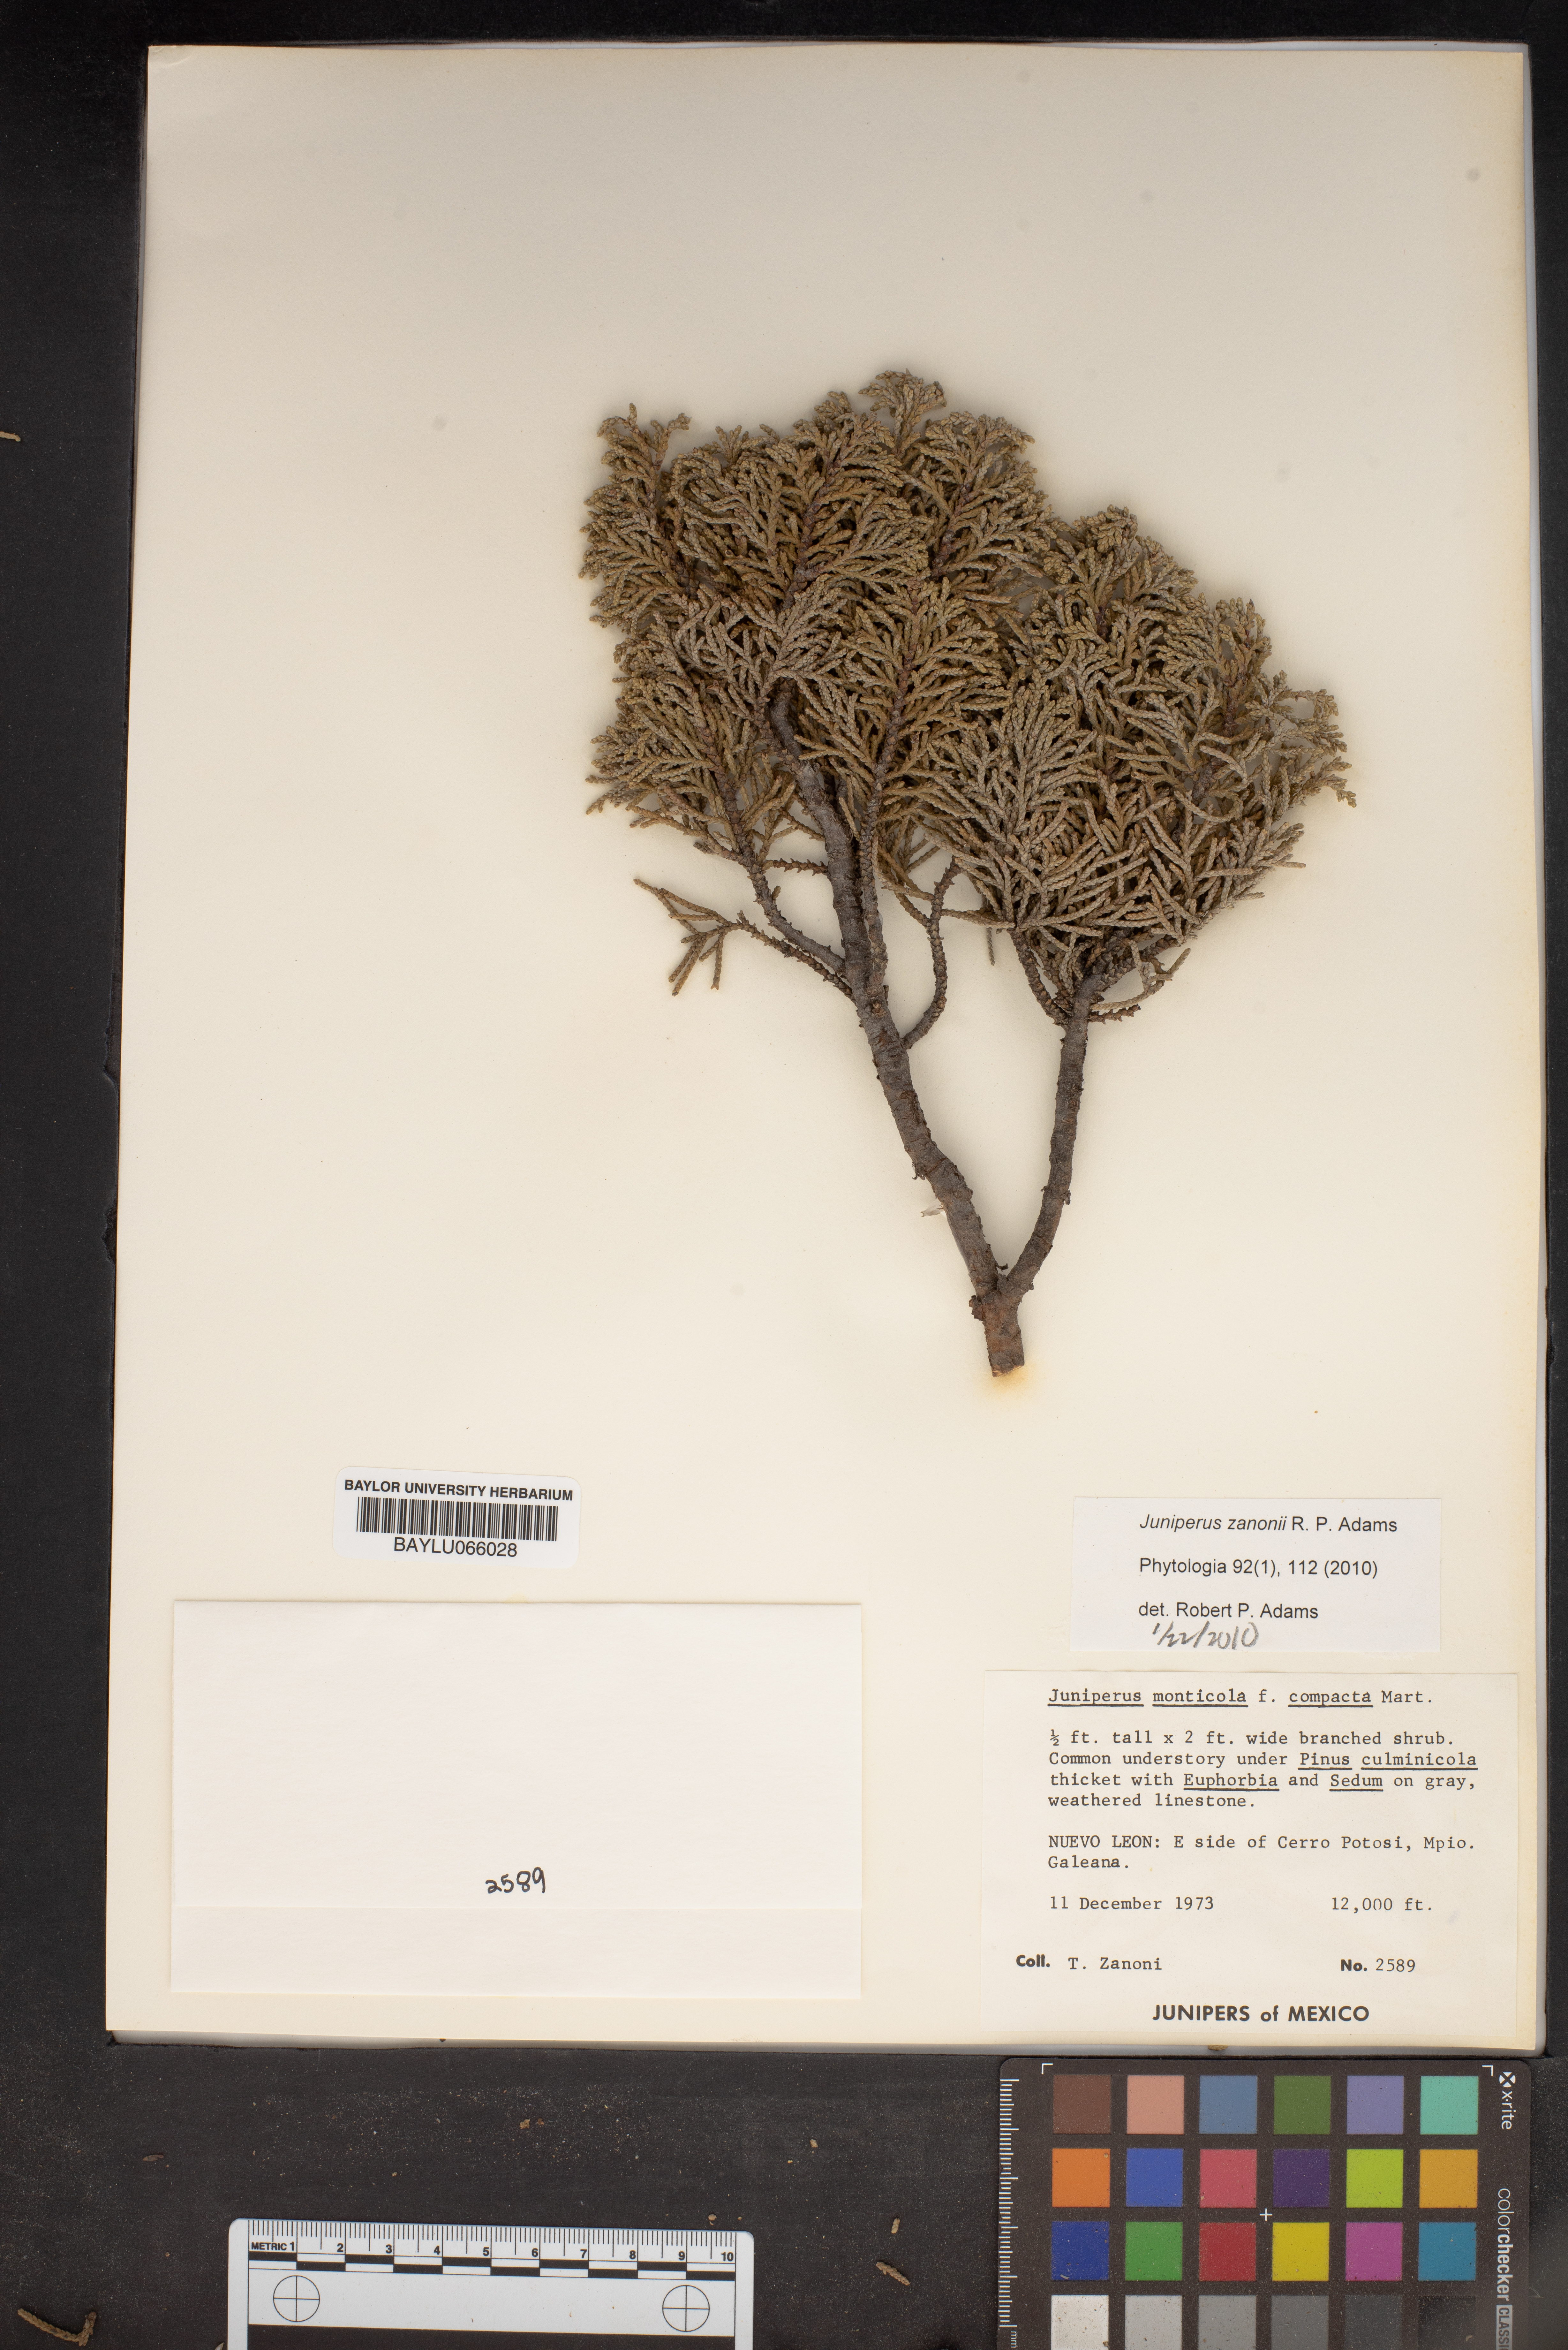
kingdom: Plantae
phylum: Tracheophyta
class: Pinopsida
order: Pinales
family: Cupressaceae
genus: Juniperus
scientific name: Juniperus monticola
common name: Mexican juniper
